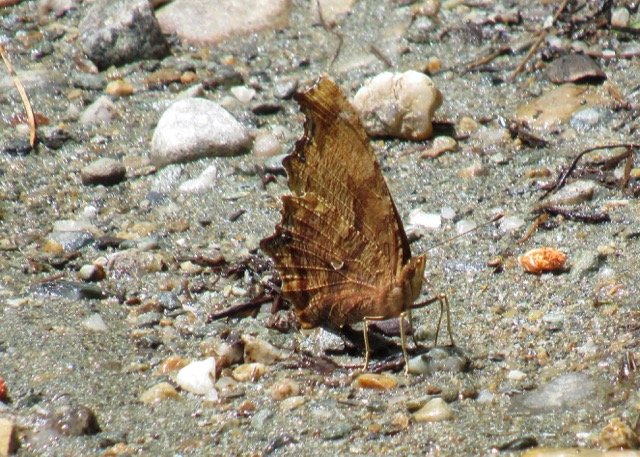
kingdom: Animalia
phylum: Arthropoda
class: Insecta
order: Lepidoptera
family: Nymphalidae
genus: Polygonia
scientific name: Polygonia comma
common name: Eastern Comma
